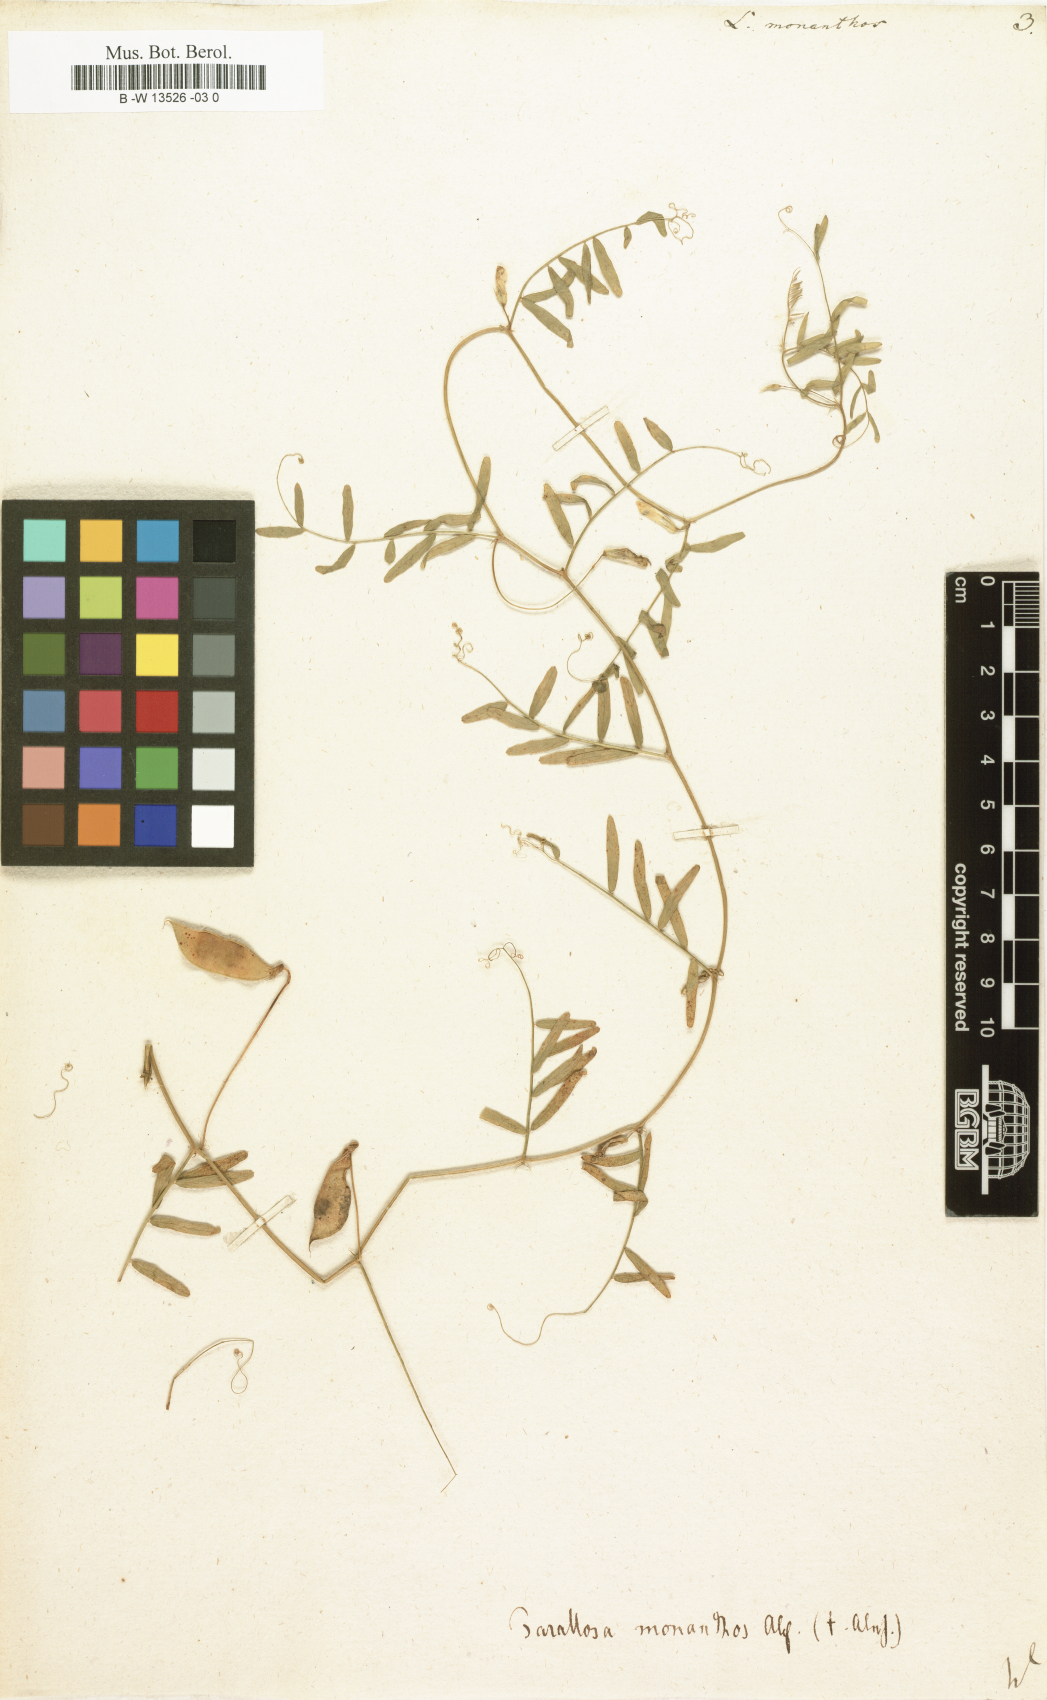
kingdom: Plantae
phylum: Tracheophyta
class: Magnoliopsida
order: Fabales
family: Fabaceae
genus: Vicia
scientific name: Vicia
